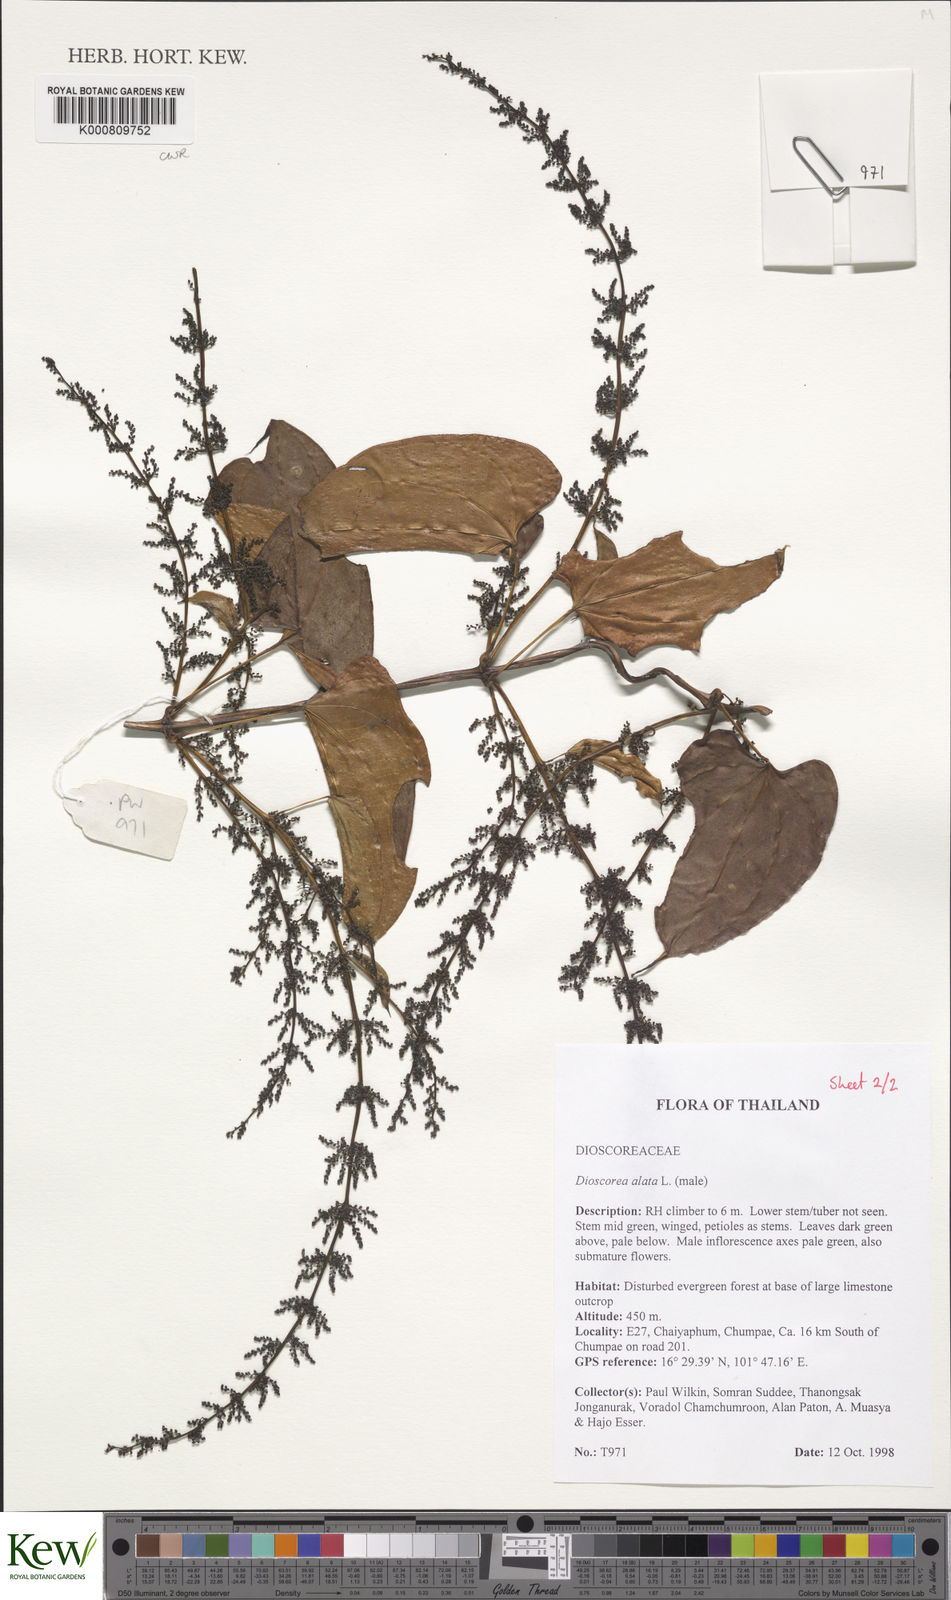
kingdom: Plantae
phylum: Tracheophyta
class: Liliopsida
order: Dioscoreales
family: Dioscoreaceae
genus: Dioscorea
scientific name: Dioscorea
